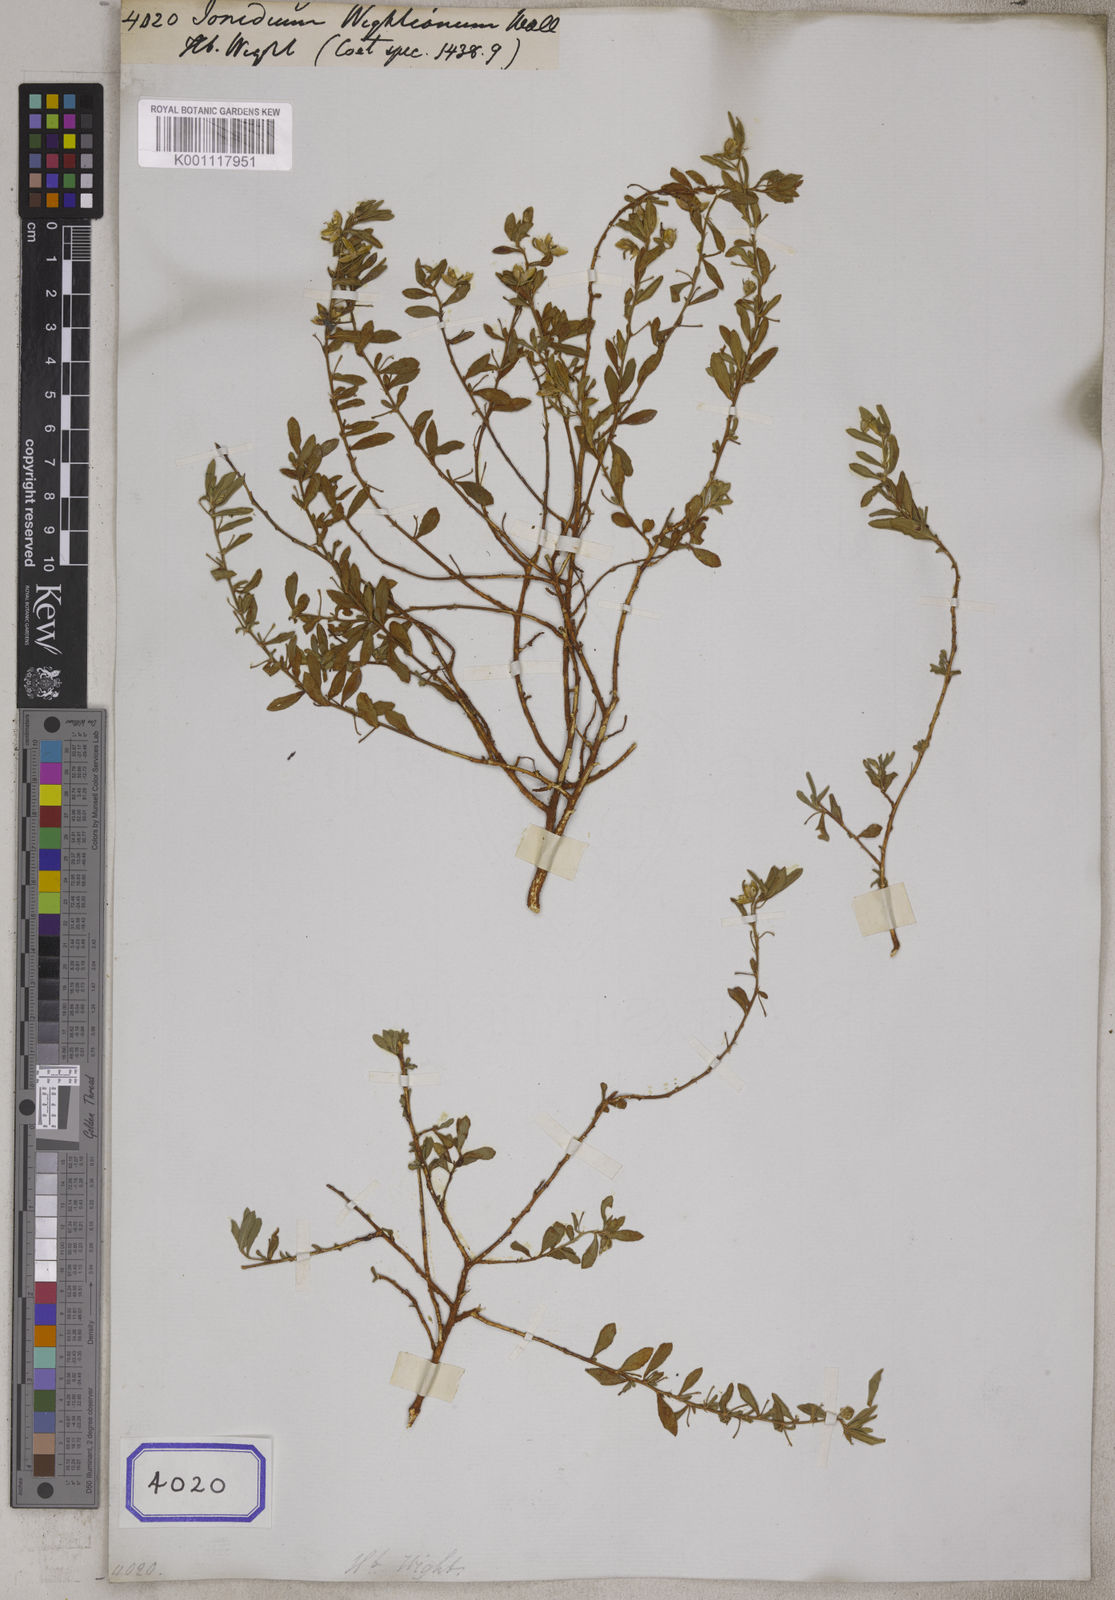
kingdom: Plantae
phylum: Tracheophyta
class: Magnoliopsida
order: Malpighiales
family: Violaceae
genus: Pigea
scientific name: Pigea enneasperma
